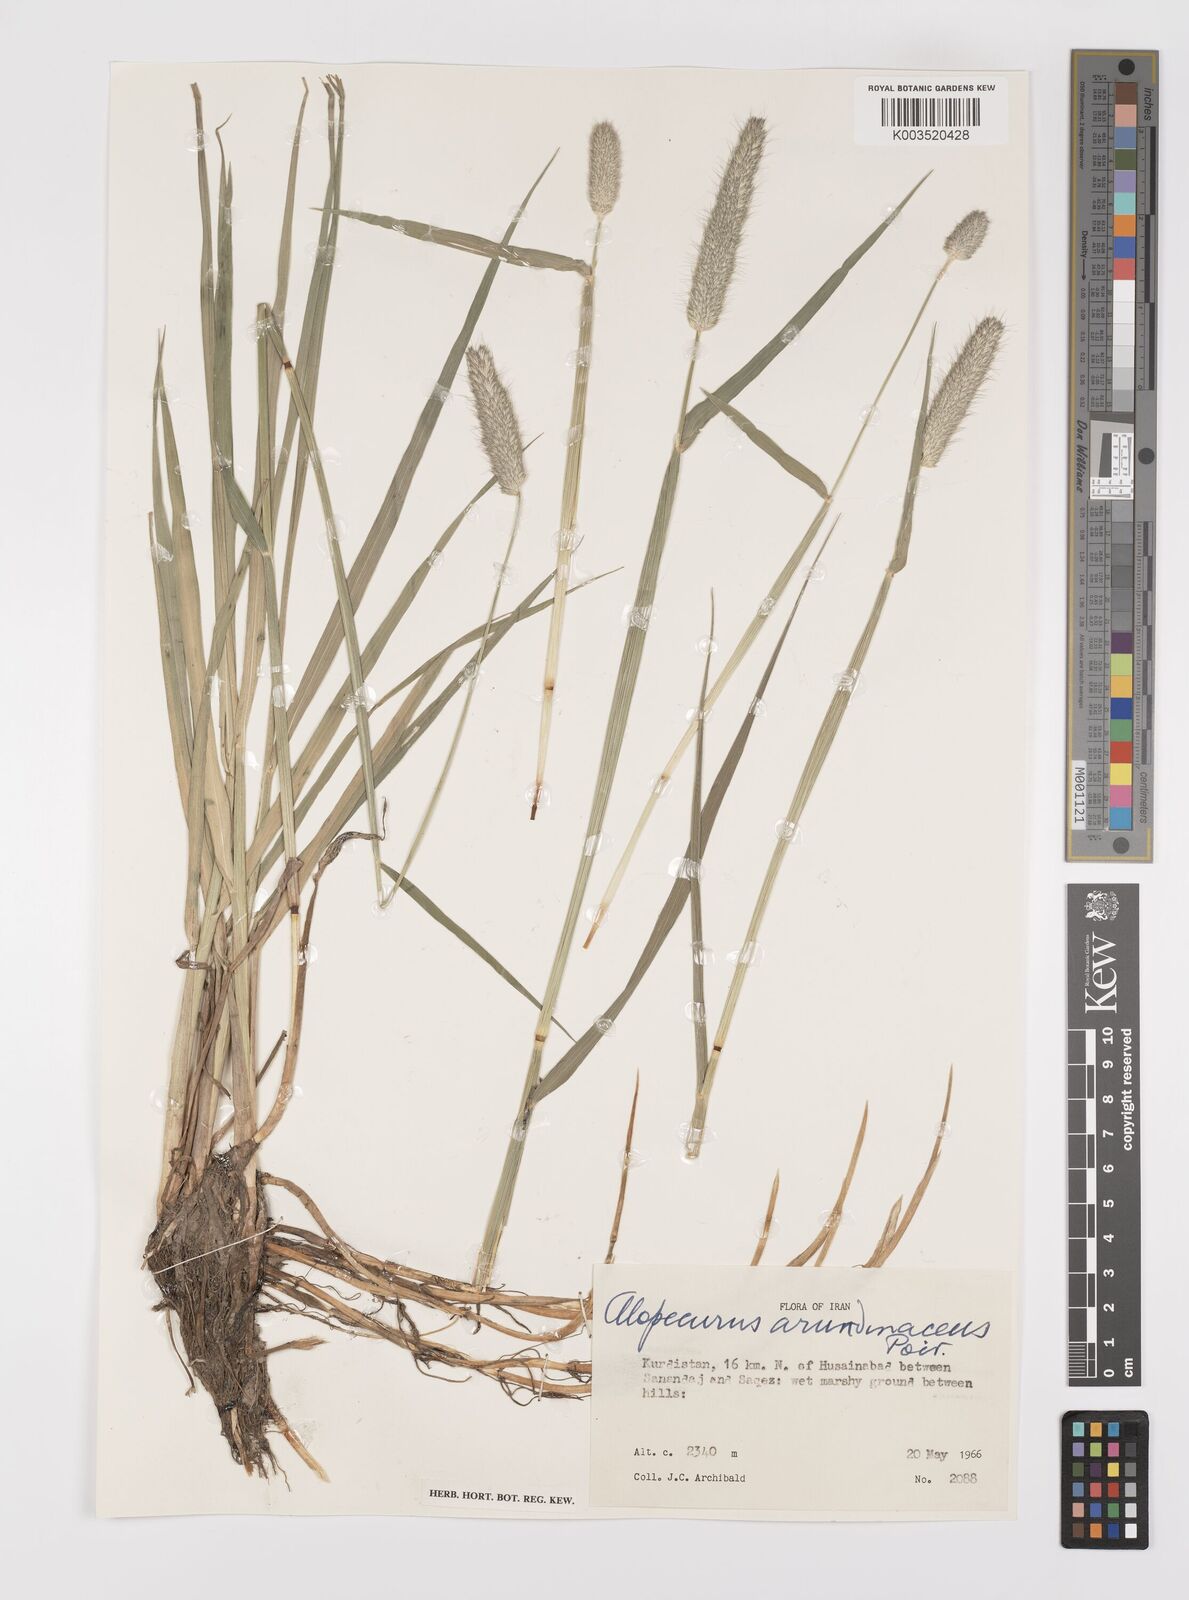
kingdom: Plantae
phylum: Tracheophyta
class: Liliopsida
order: Poales
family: Poaceae
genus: Alopecurus
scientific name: Alopecurus arundinaceus
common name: Creeping meadow foxtail
